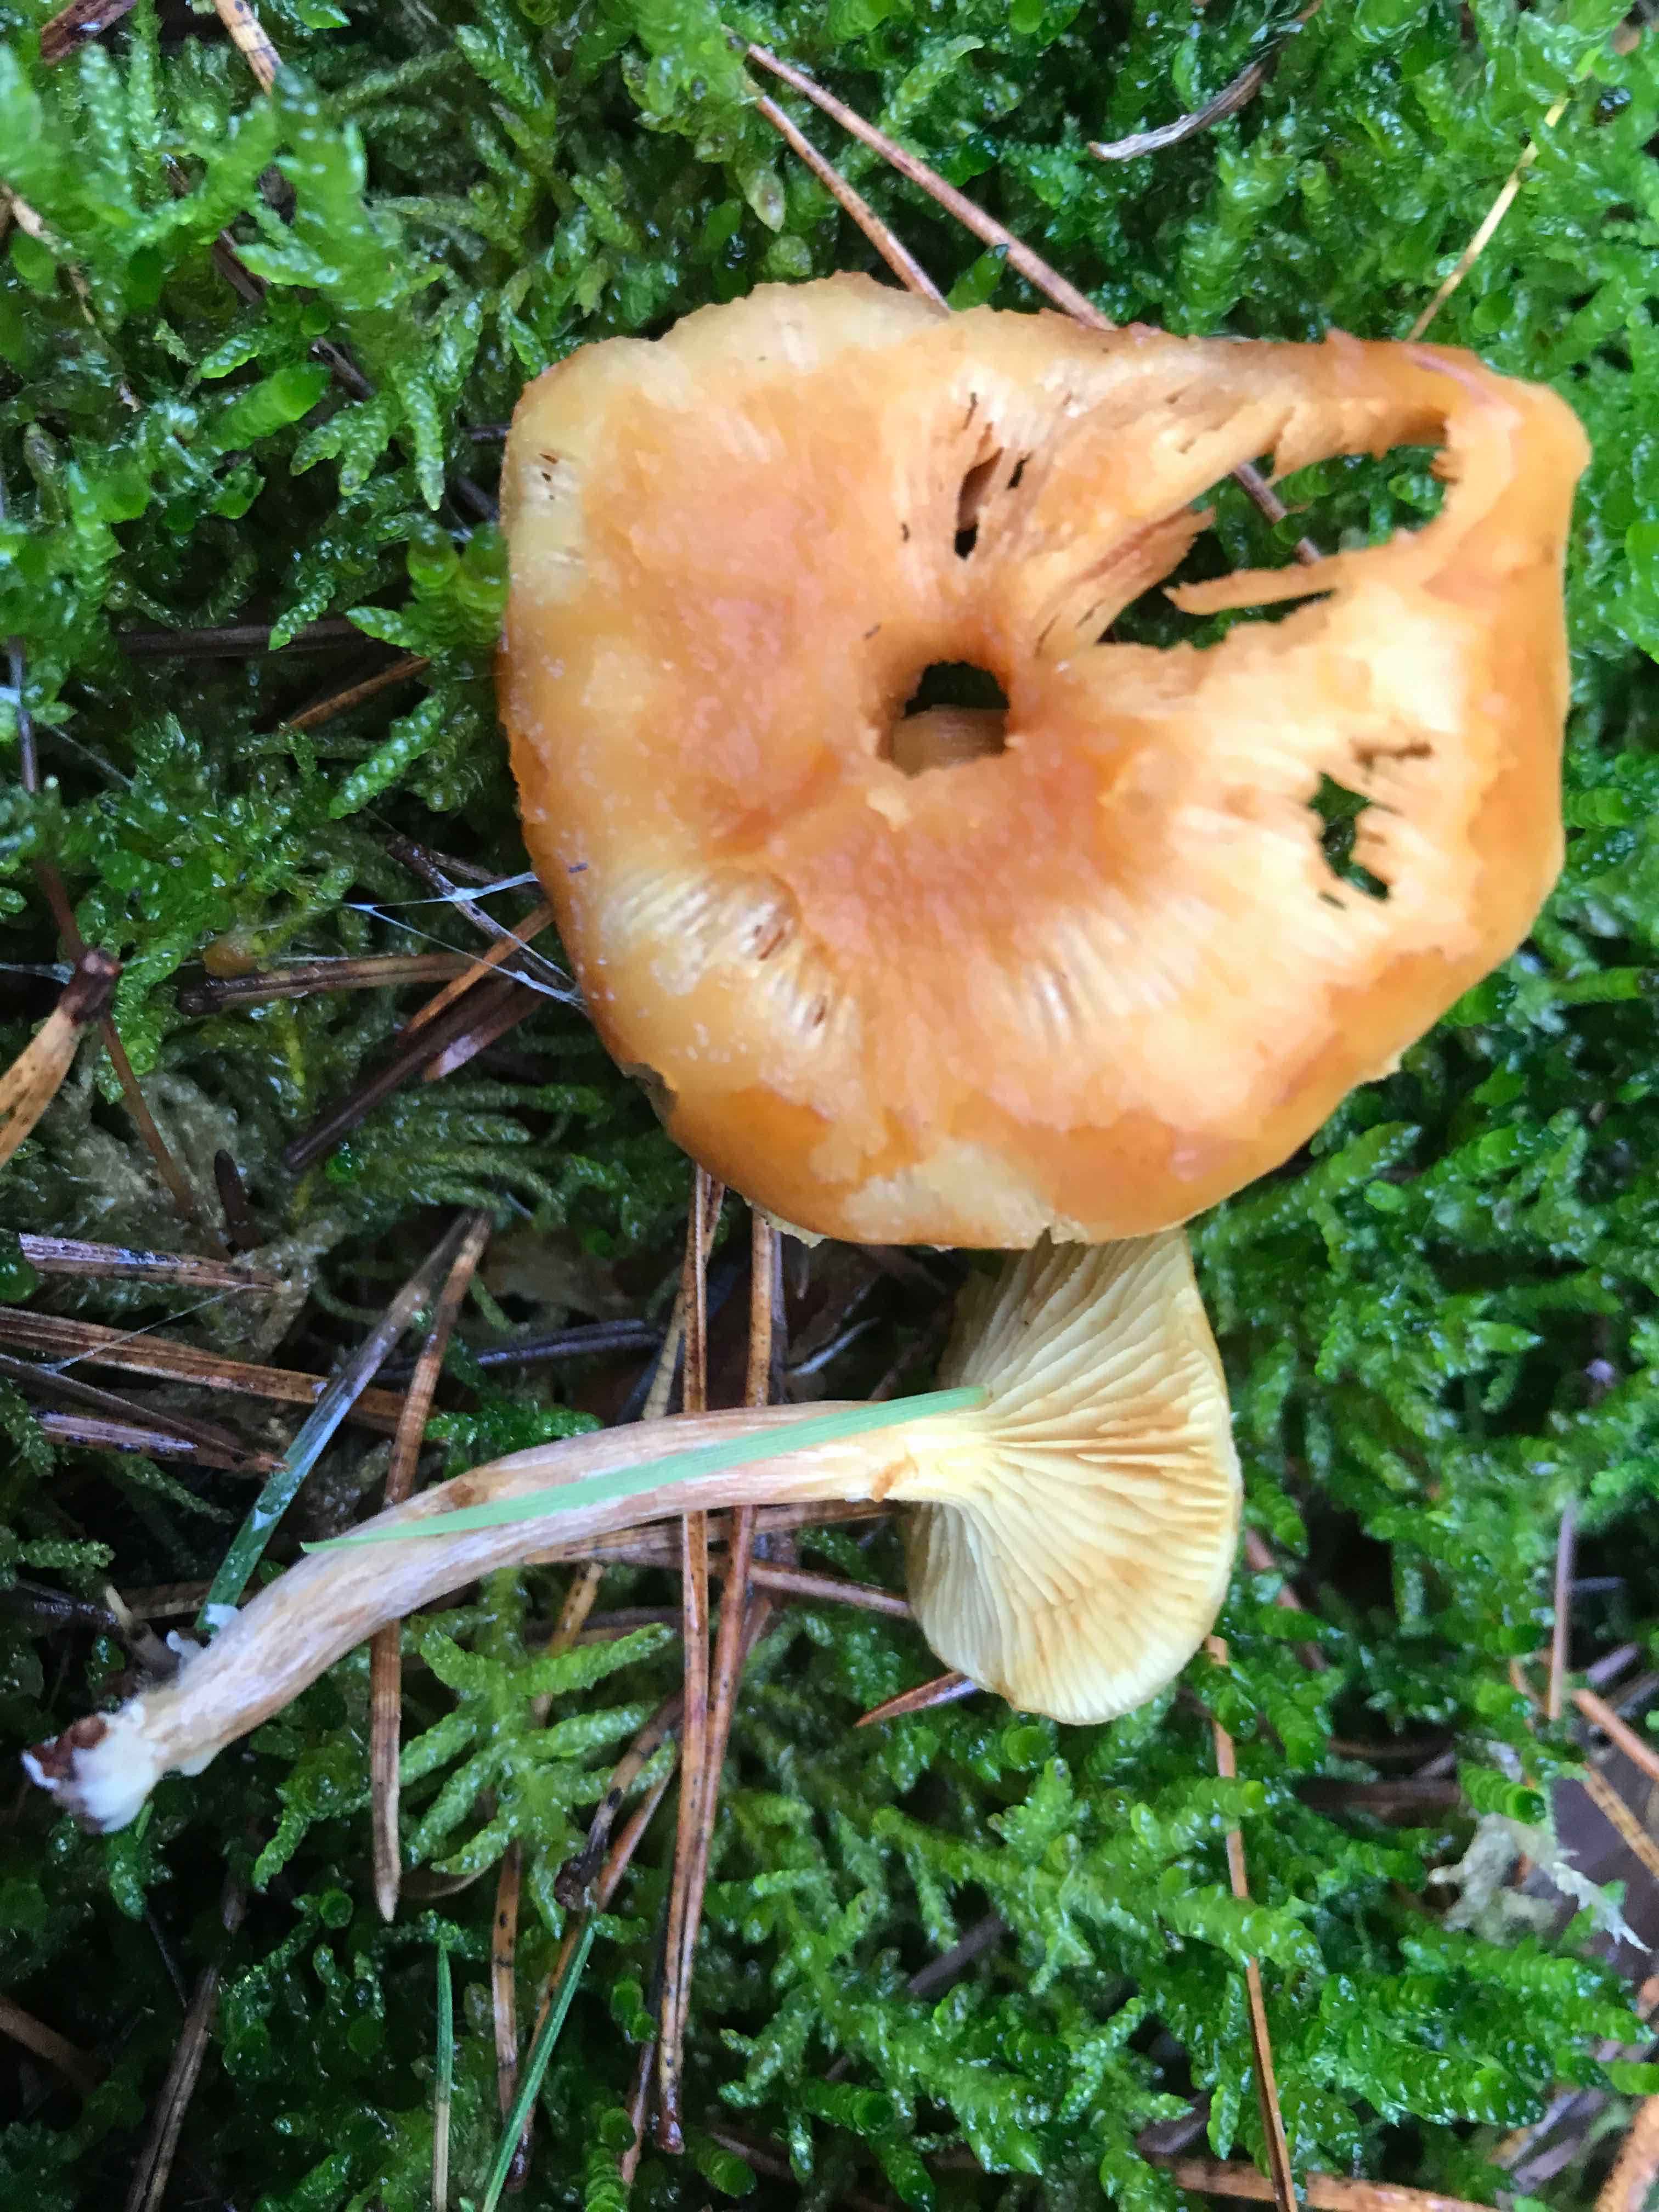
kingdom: Fungi
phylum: Basidiomycota
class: Agaricomycetes
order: Agaricales
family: Hymenogastraceae
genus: Gymnopilus
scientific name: Gymnopilus penetrans
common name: plettet flammehat
